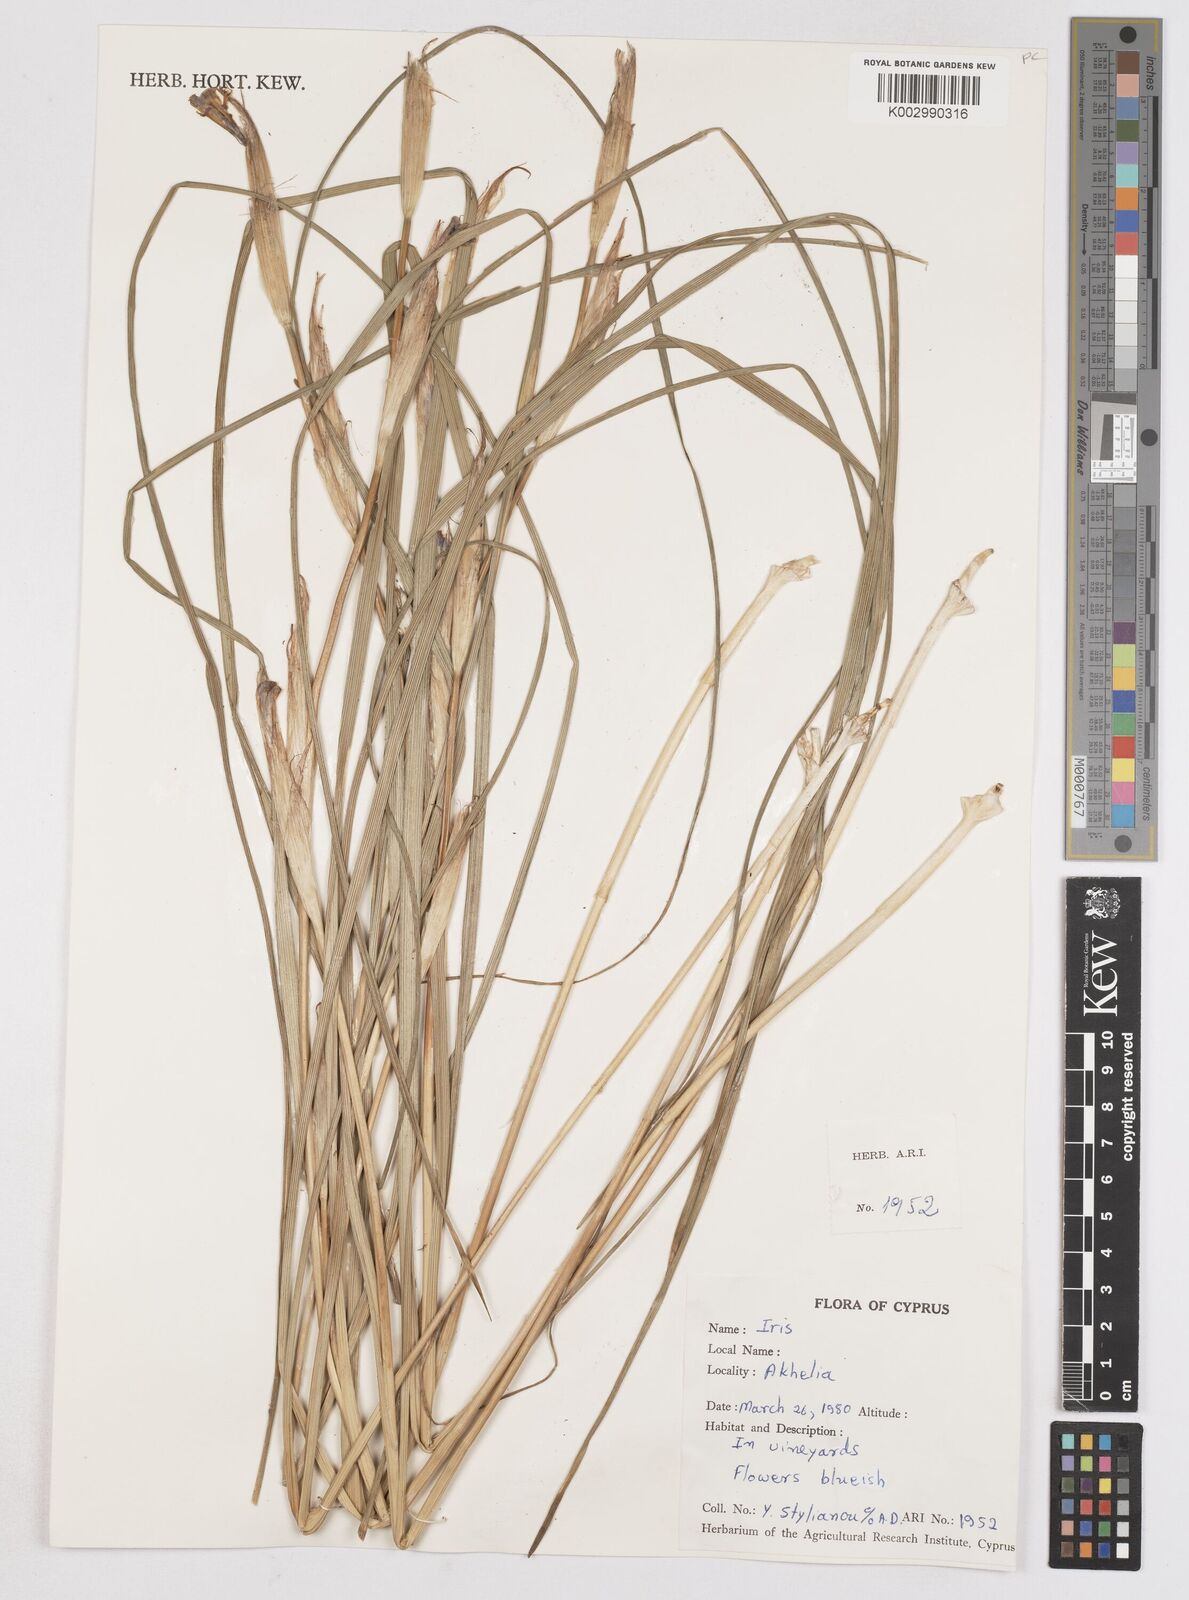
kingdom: Plantae
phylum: Tracheophyta
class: Liliopsida
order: Asparagales
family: Iridaceae
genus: Moraea
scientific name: Moraea sisyrinchium
